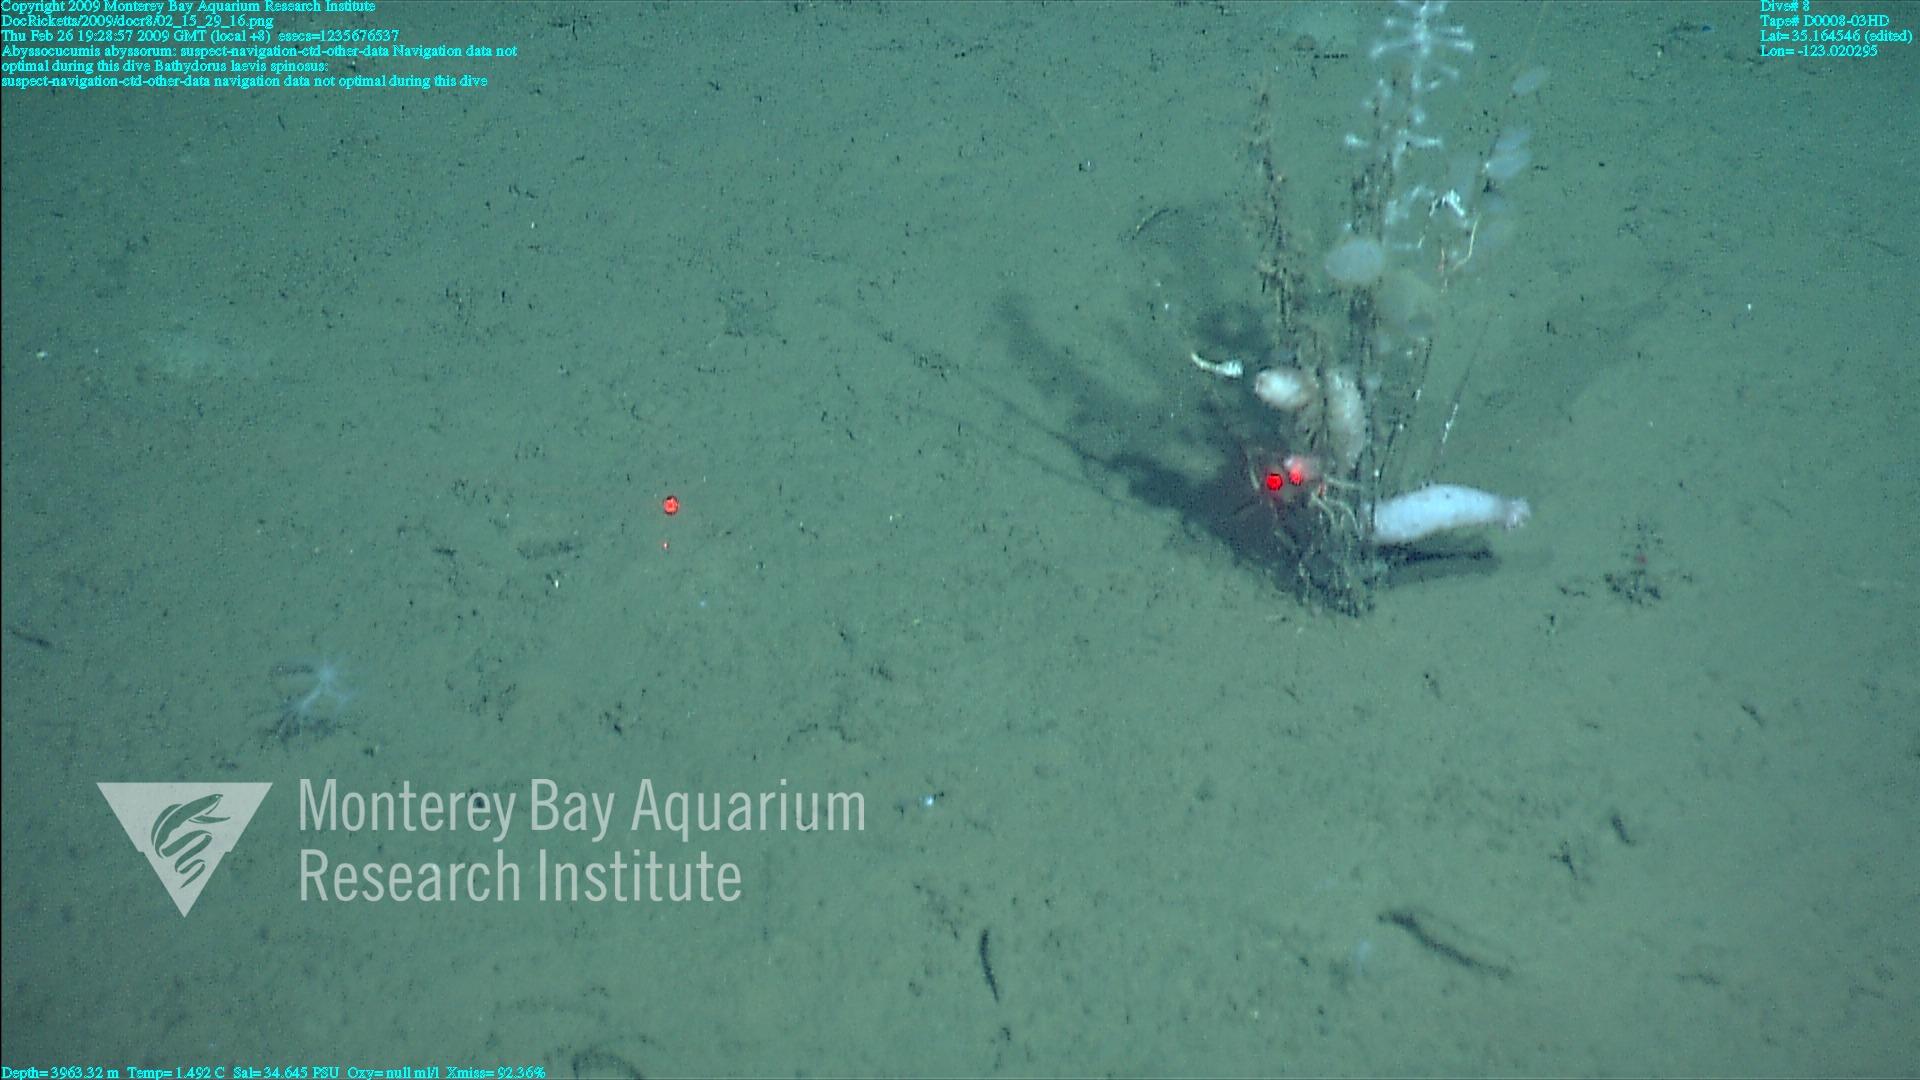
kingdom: Animalia
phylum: Porifera
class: Hexactinellida
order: Lyssacinosida
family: Rossellidae
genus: Bathydorus
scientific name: Bathydorus spinosus
